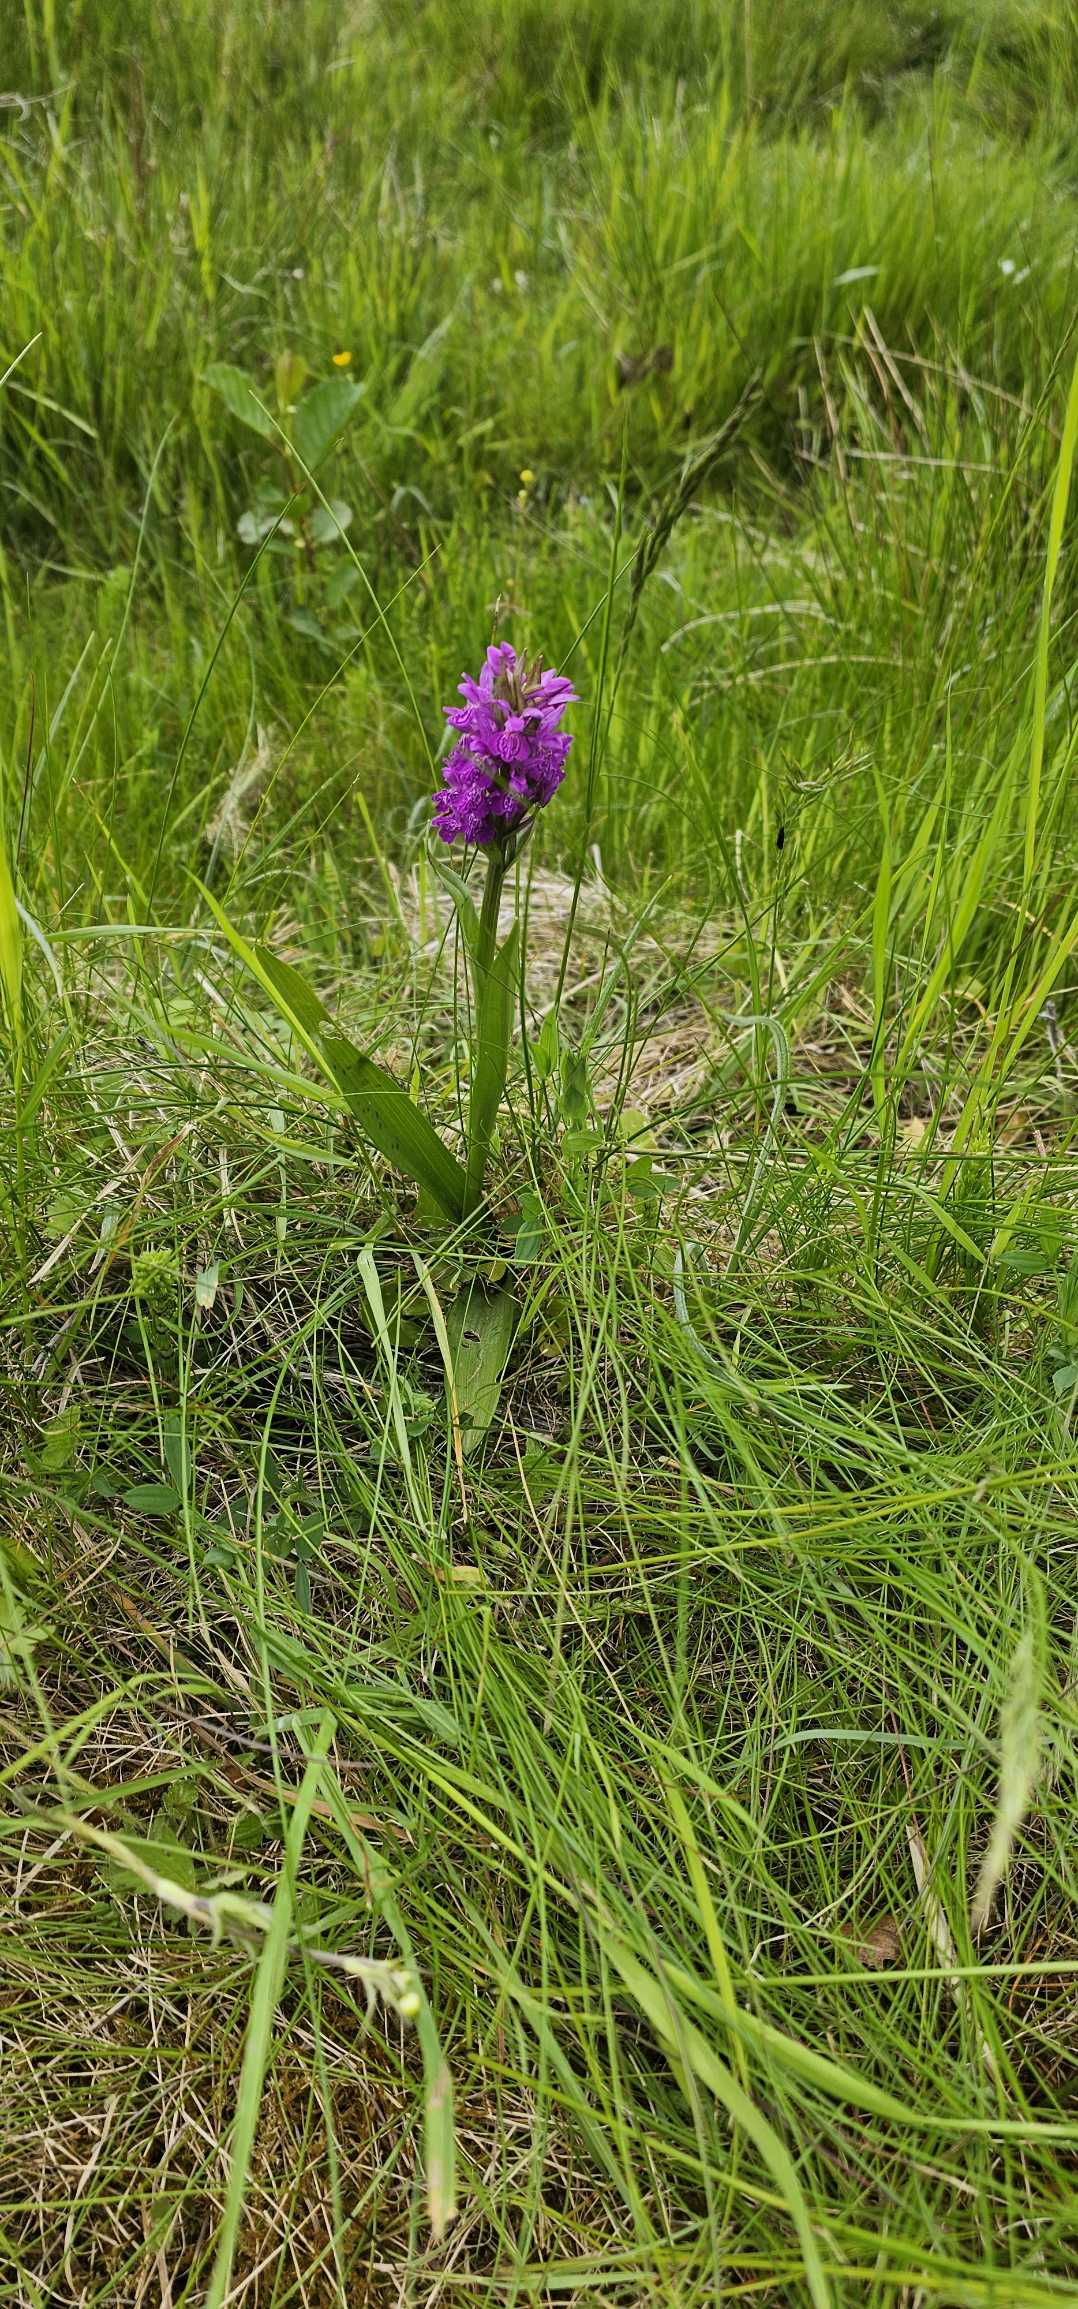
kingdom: Plantae
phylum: Tracheophyta
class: Liliopsida
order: Asparagales
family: Orchidaceae
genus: Dactylorhiza
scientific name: Dactylorhiza majalis
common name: Maj-gøgeurt
